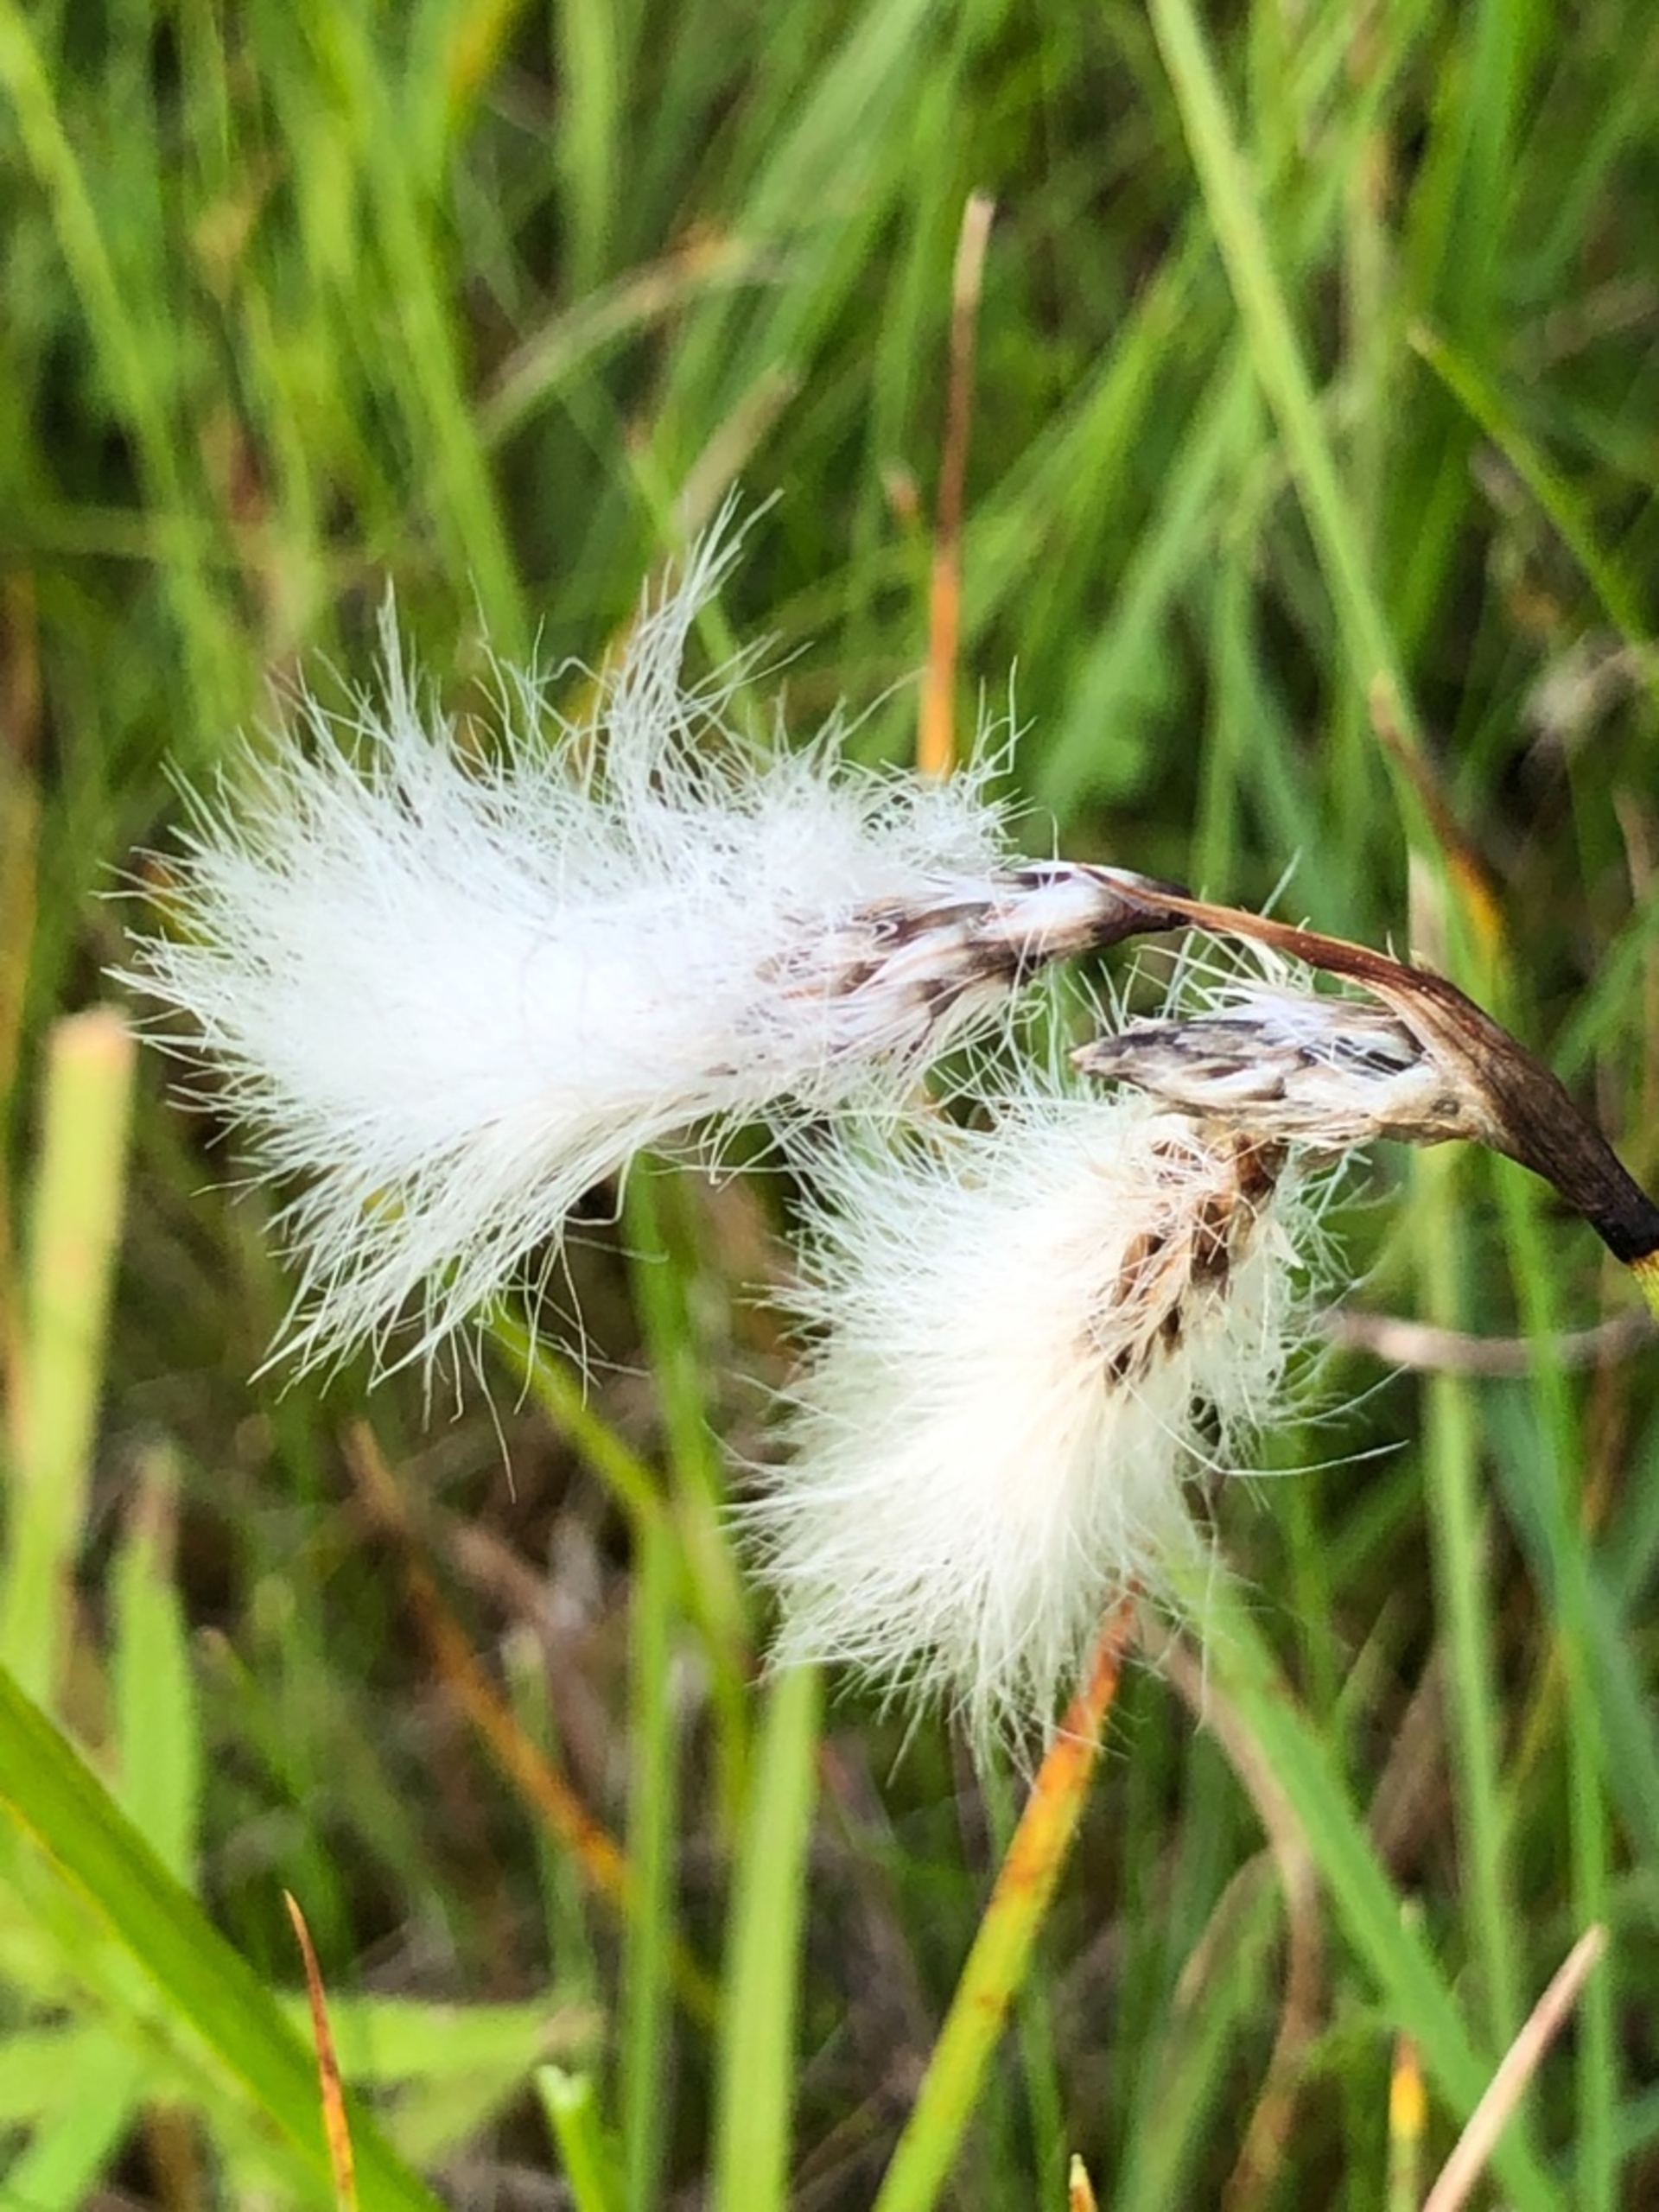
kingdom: Plantae
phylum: Tracheophyta
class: Liliopsida
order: Poales
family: Cyperaceae
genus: Eriophorum
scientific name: Eriophorum angustifolium
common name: Smalbladet kæruld
